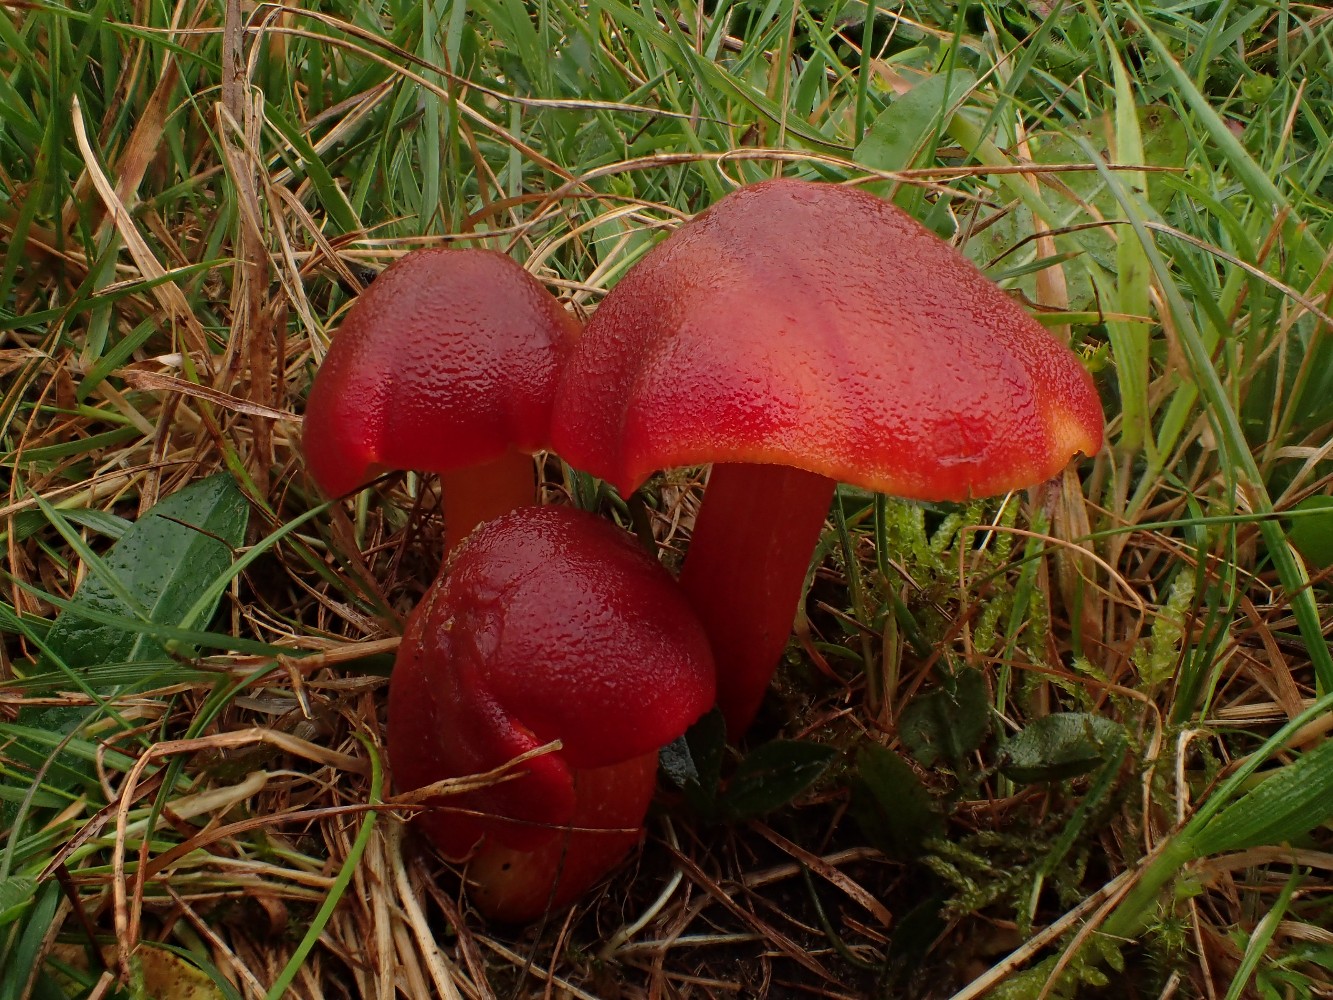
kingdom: Fungi
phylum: Basidiomycota
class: Agaricomycetes
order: Agaricales
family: Hygrophoraceae
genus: Hygrocybe
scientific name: Hygrocybe punicea
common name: skarlagen-vokshat
